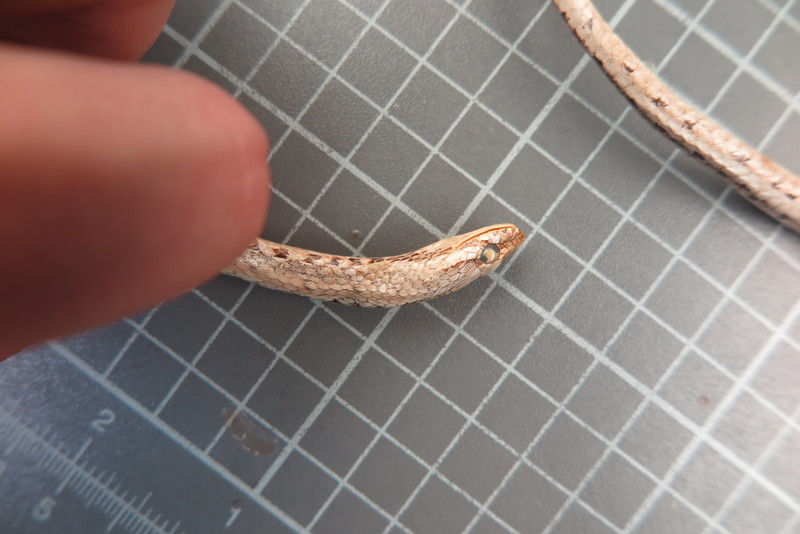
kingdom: Animalia
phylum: Chordata
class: Squamata
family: Psammophiidae
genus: Mimophis
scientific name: Mimophis
